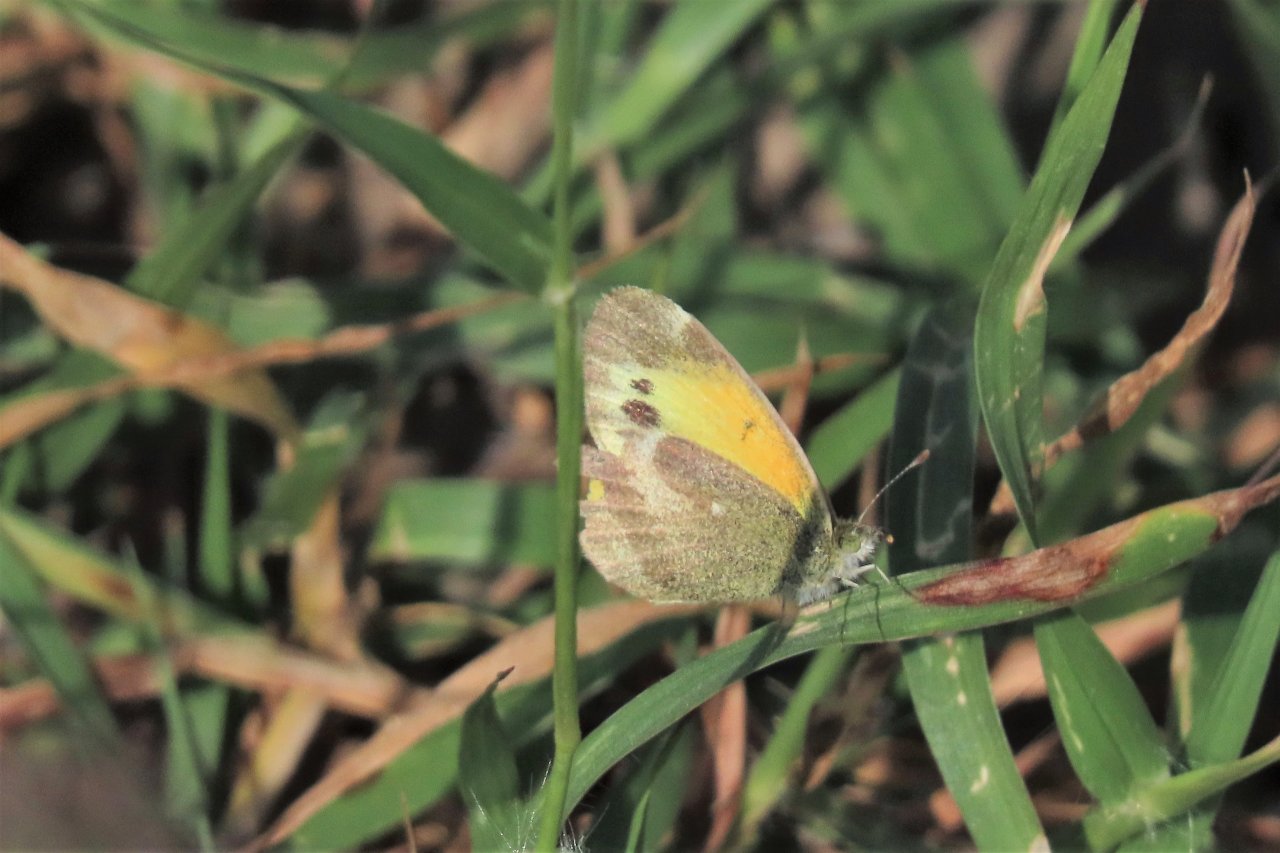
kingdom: Animalia
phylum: Arthropoda
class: Insecta
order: Lepidoptera
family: Pieridae
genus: Nathalis
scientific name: Nathalis iole
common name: Dainty Sulphur
